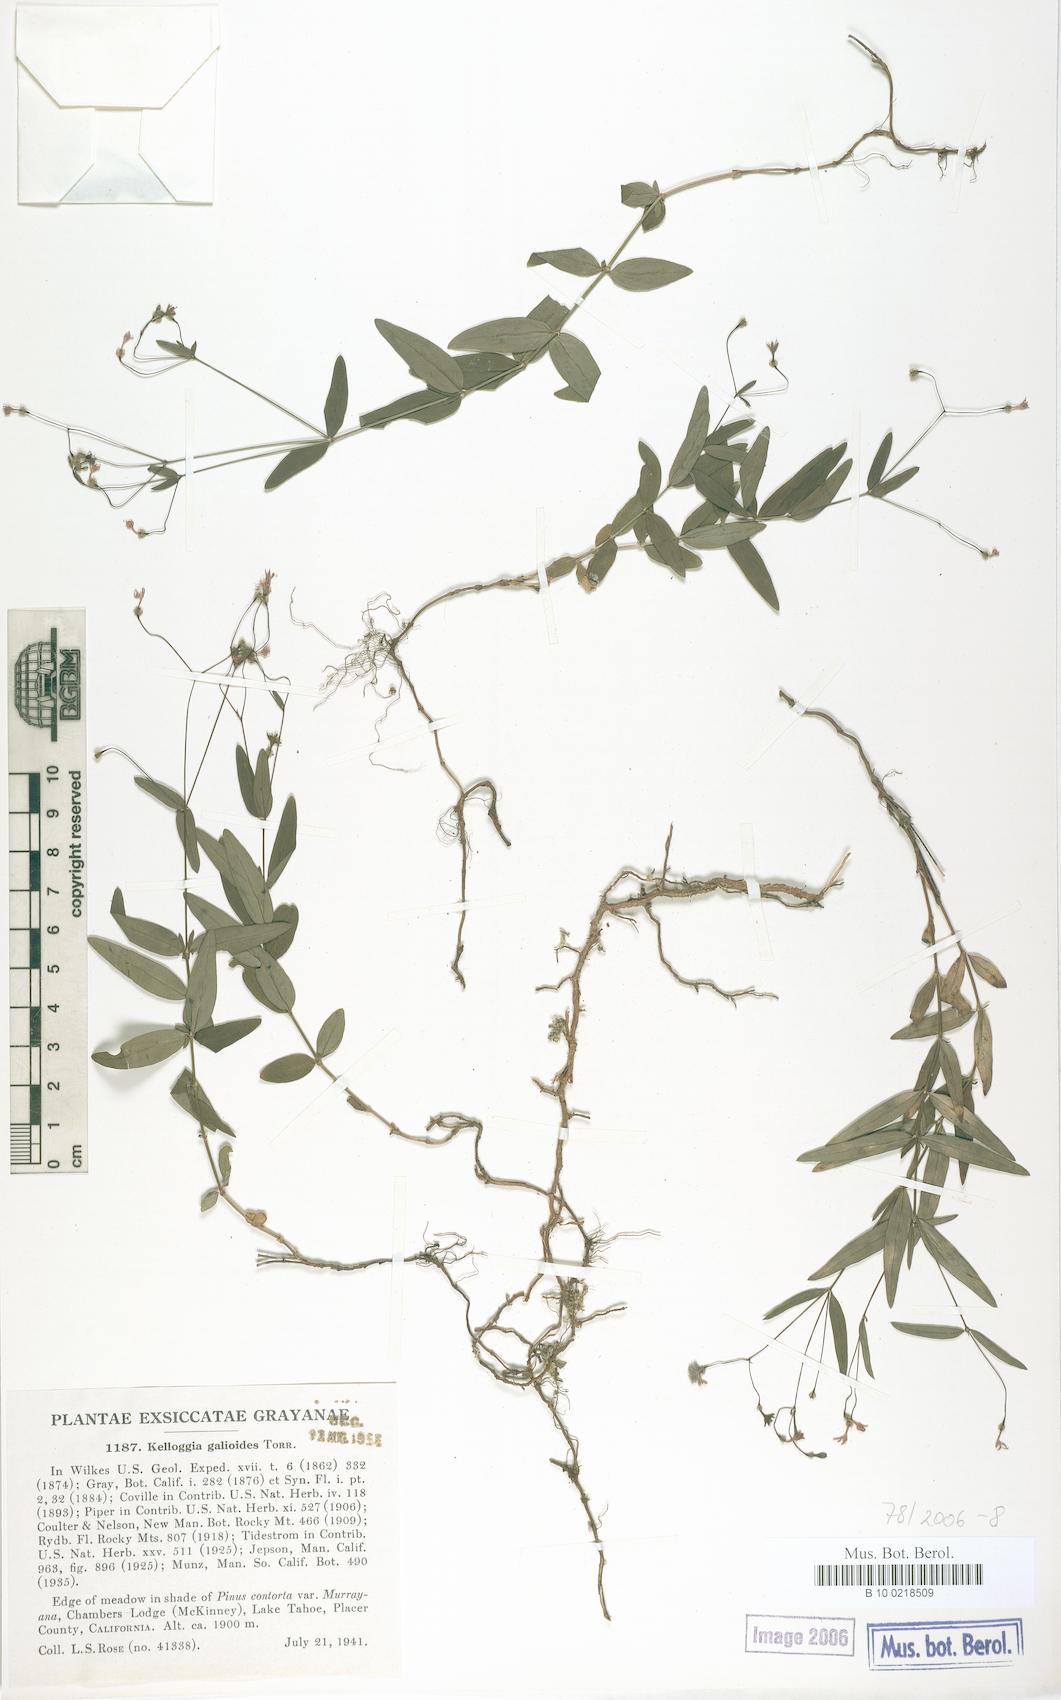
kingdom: Plantae
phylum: Tracheophyta
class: Magnoliopsida
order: Gentianales
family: Rubiaceae
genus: Kelloggia
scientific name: Kelloggia galioides
